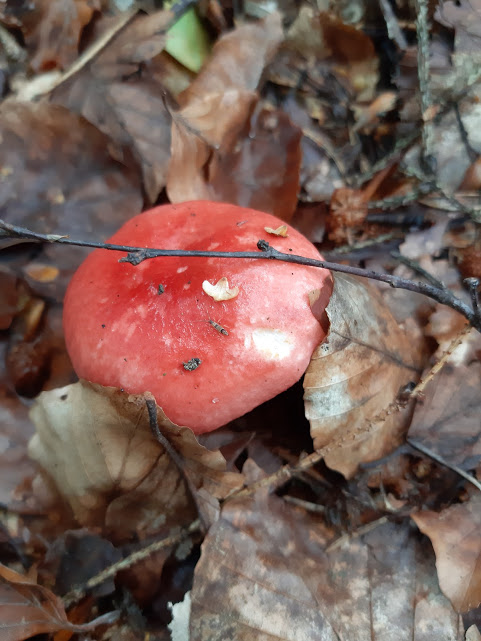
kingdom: Fungi
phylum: Basidiomycota
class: Agaricomycetes
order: Russulales
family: Russulaceae
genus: Russula
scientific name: Russula nobilis
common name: lille gift-skørhat
